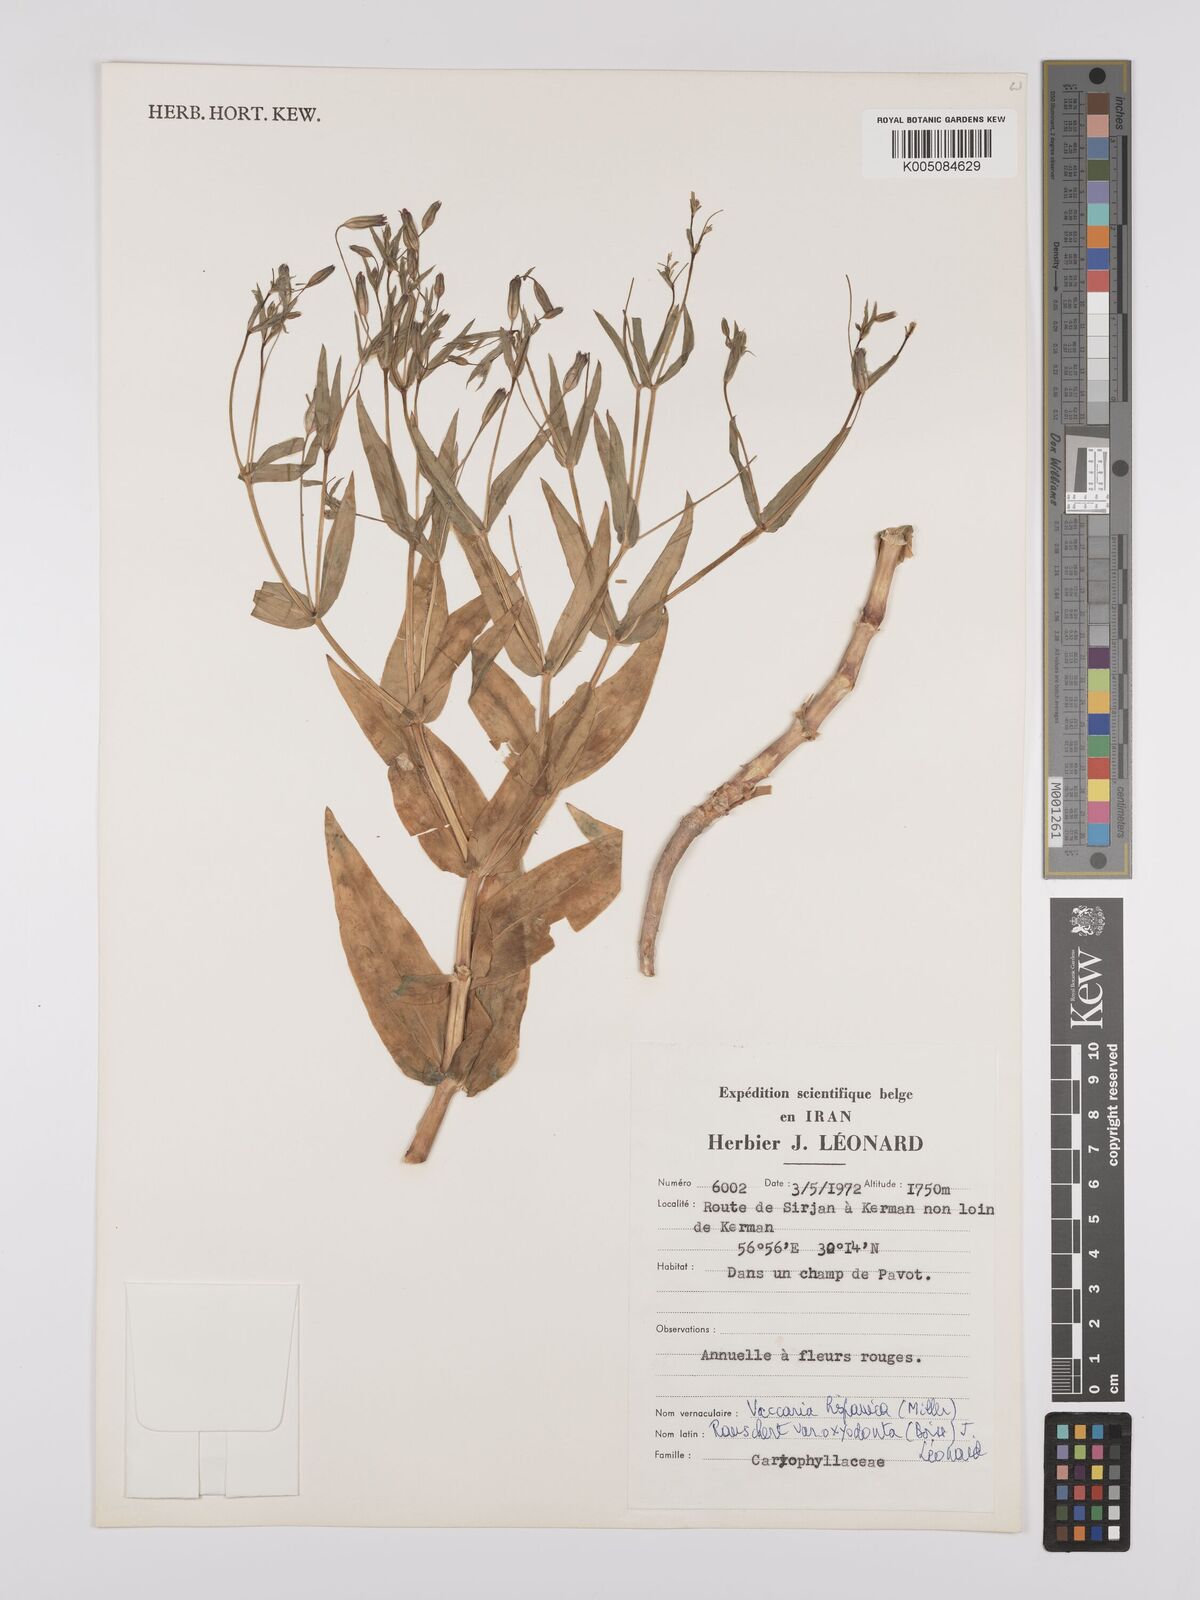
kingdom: Plantae
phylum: Tracheophyta
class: Magnoliopsida
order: Caryophyllales
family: Caryophyllaceae
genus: Gypsophila
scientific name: Gypsophila vaccaria
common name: Cow soapwort
